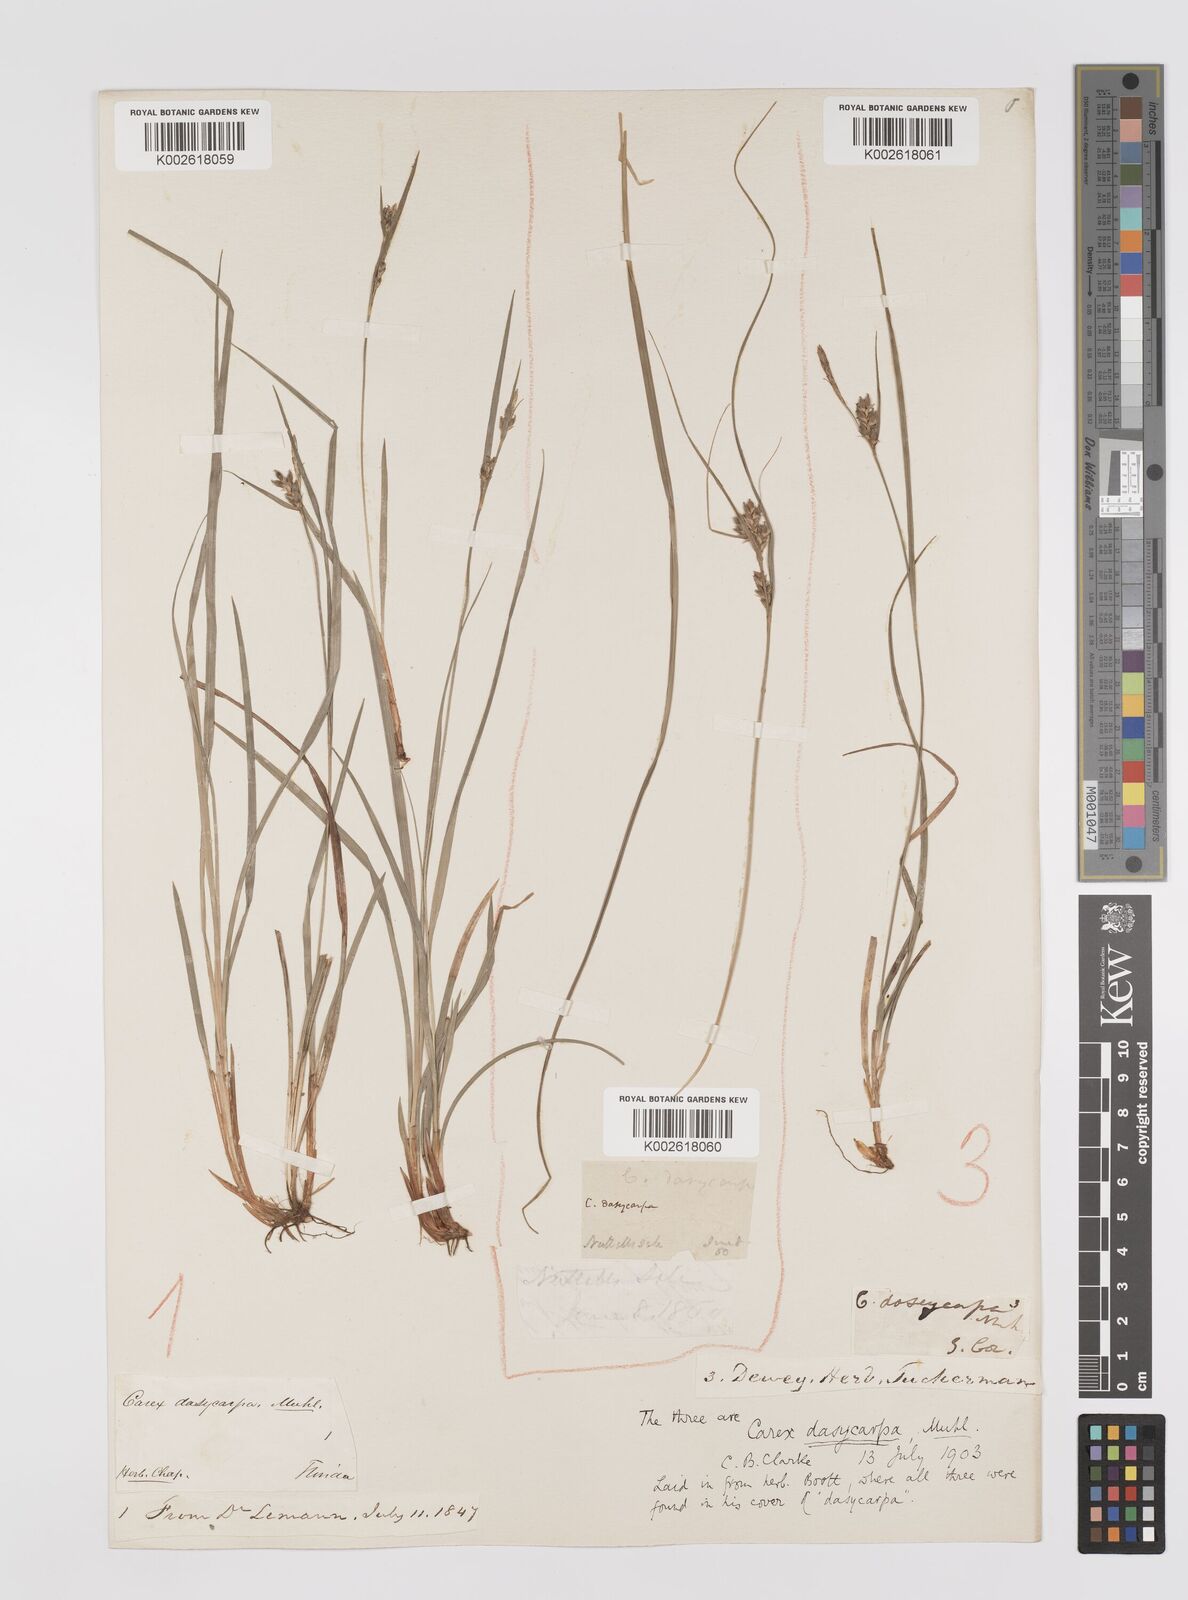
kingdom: Plantae
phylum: Tracheophyta
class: Liliopsida
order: Poales
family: Cyperaceae
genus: Carex
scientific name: Carex dasycarpa
